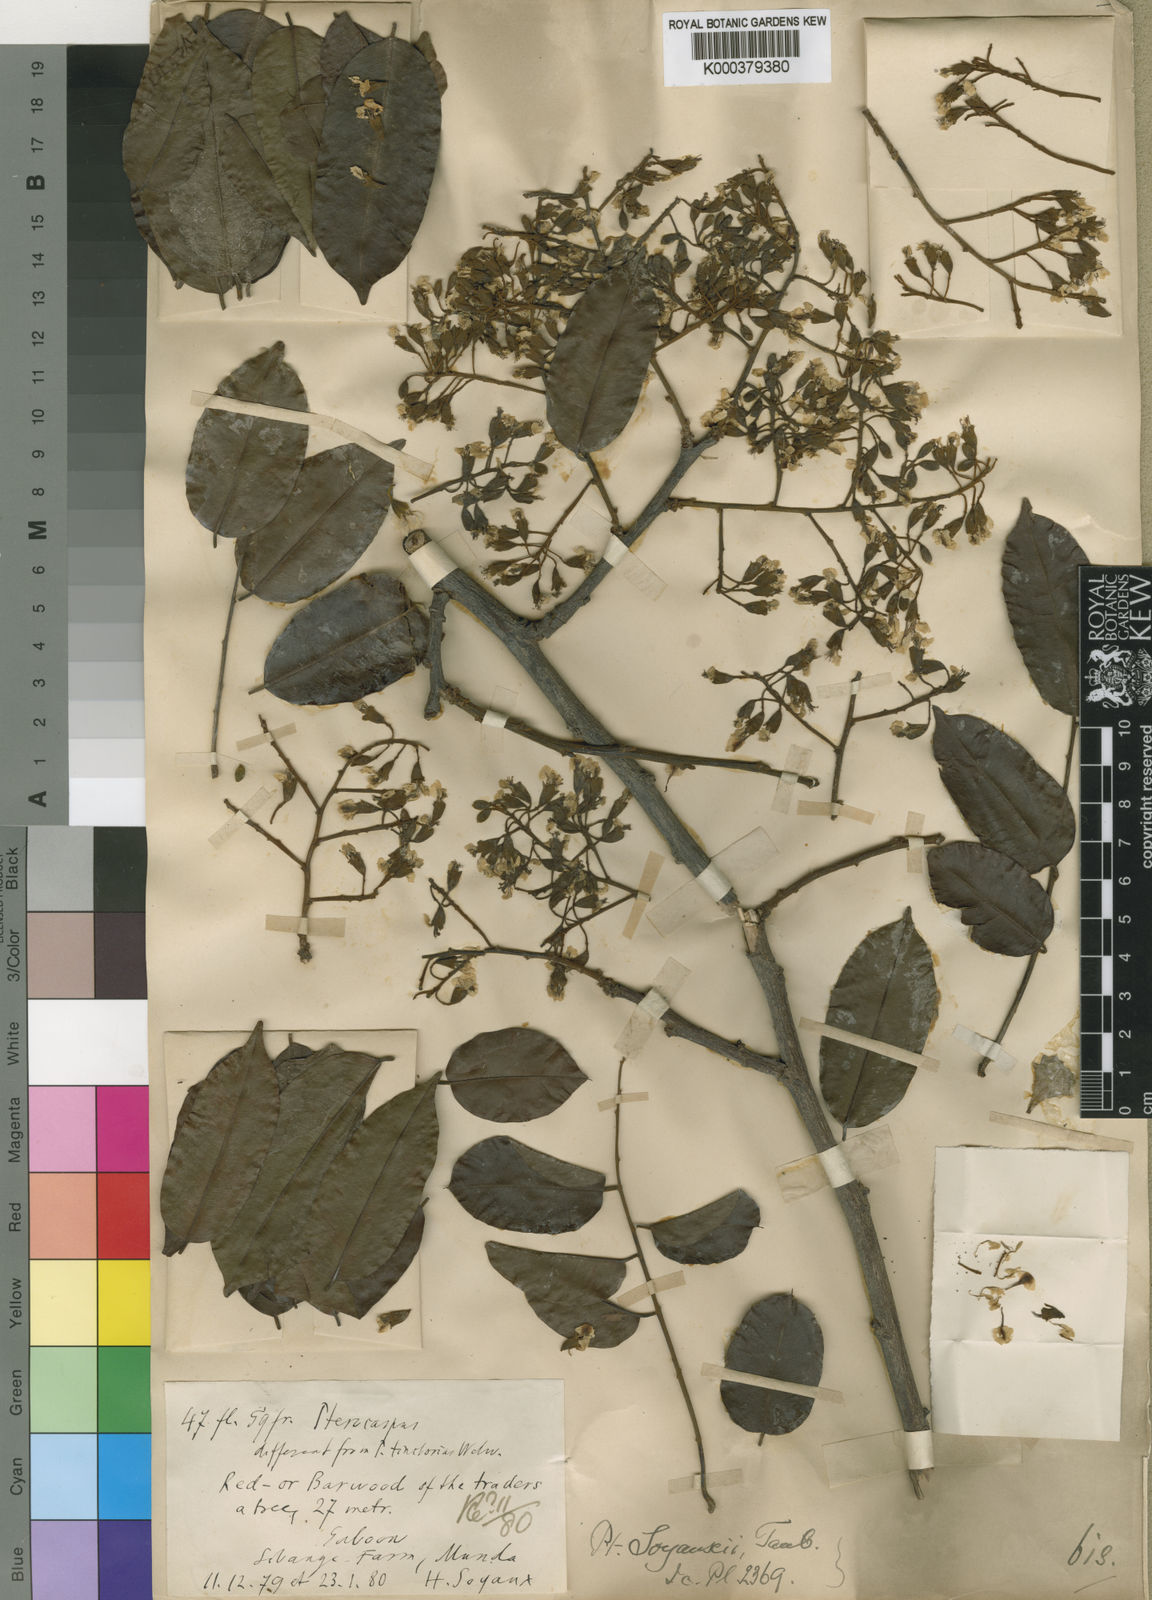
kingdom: Plantae
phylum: Tracheophyta
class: Magnoliopsida
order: Fabales
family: Fabaceae
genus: Pterocarpus
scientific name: Pterocarpus soyauxii
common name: African coralwood
